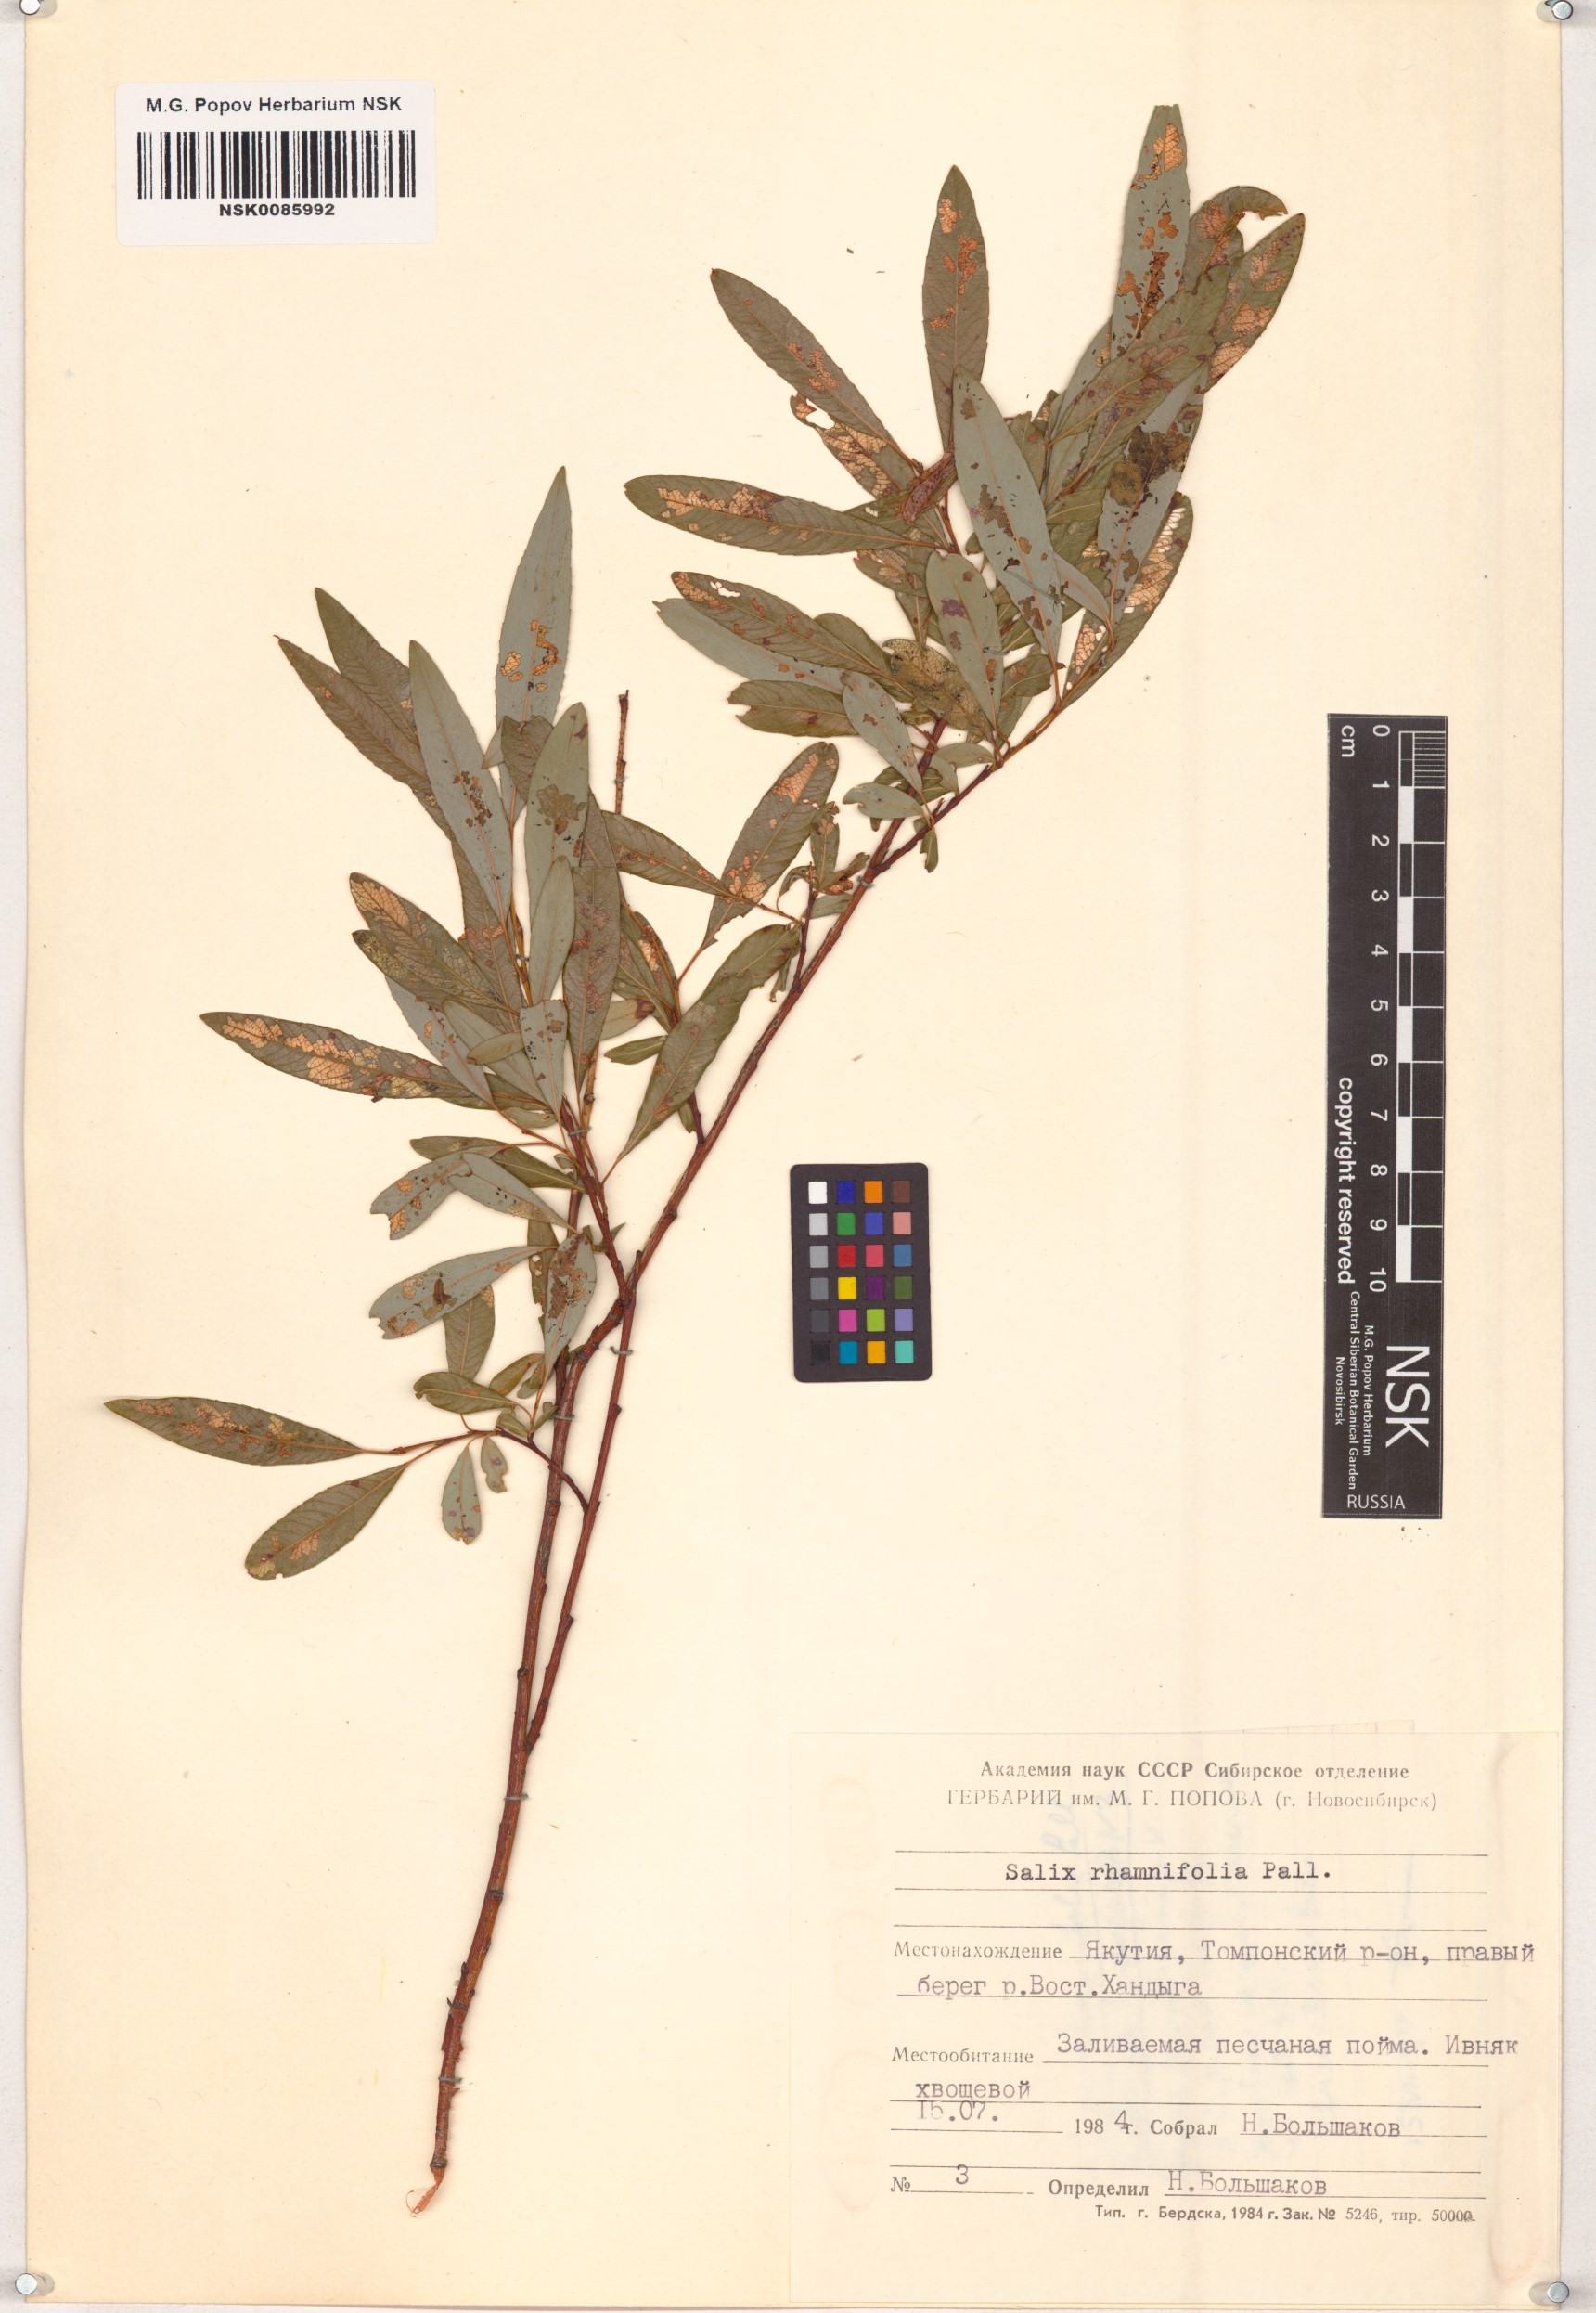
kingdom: Plantae
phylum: Tracheophyta
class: Magnoliopsida
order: Malpighiales
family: Salicaceae
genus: Salix
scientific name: Salix rhamnifolia
